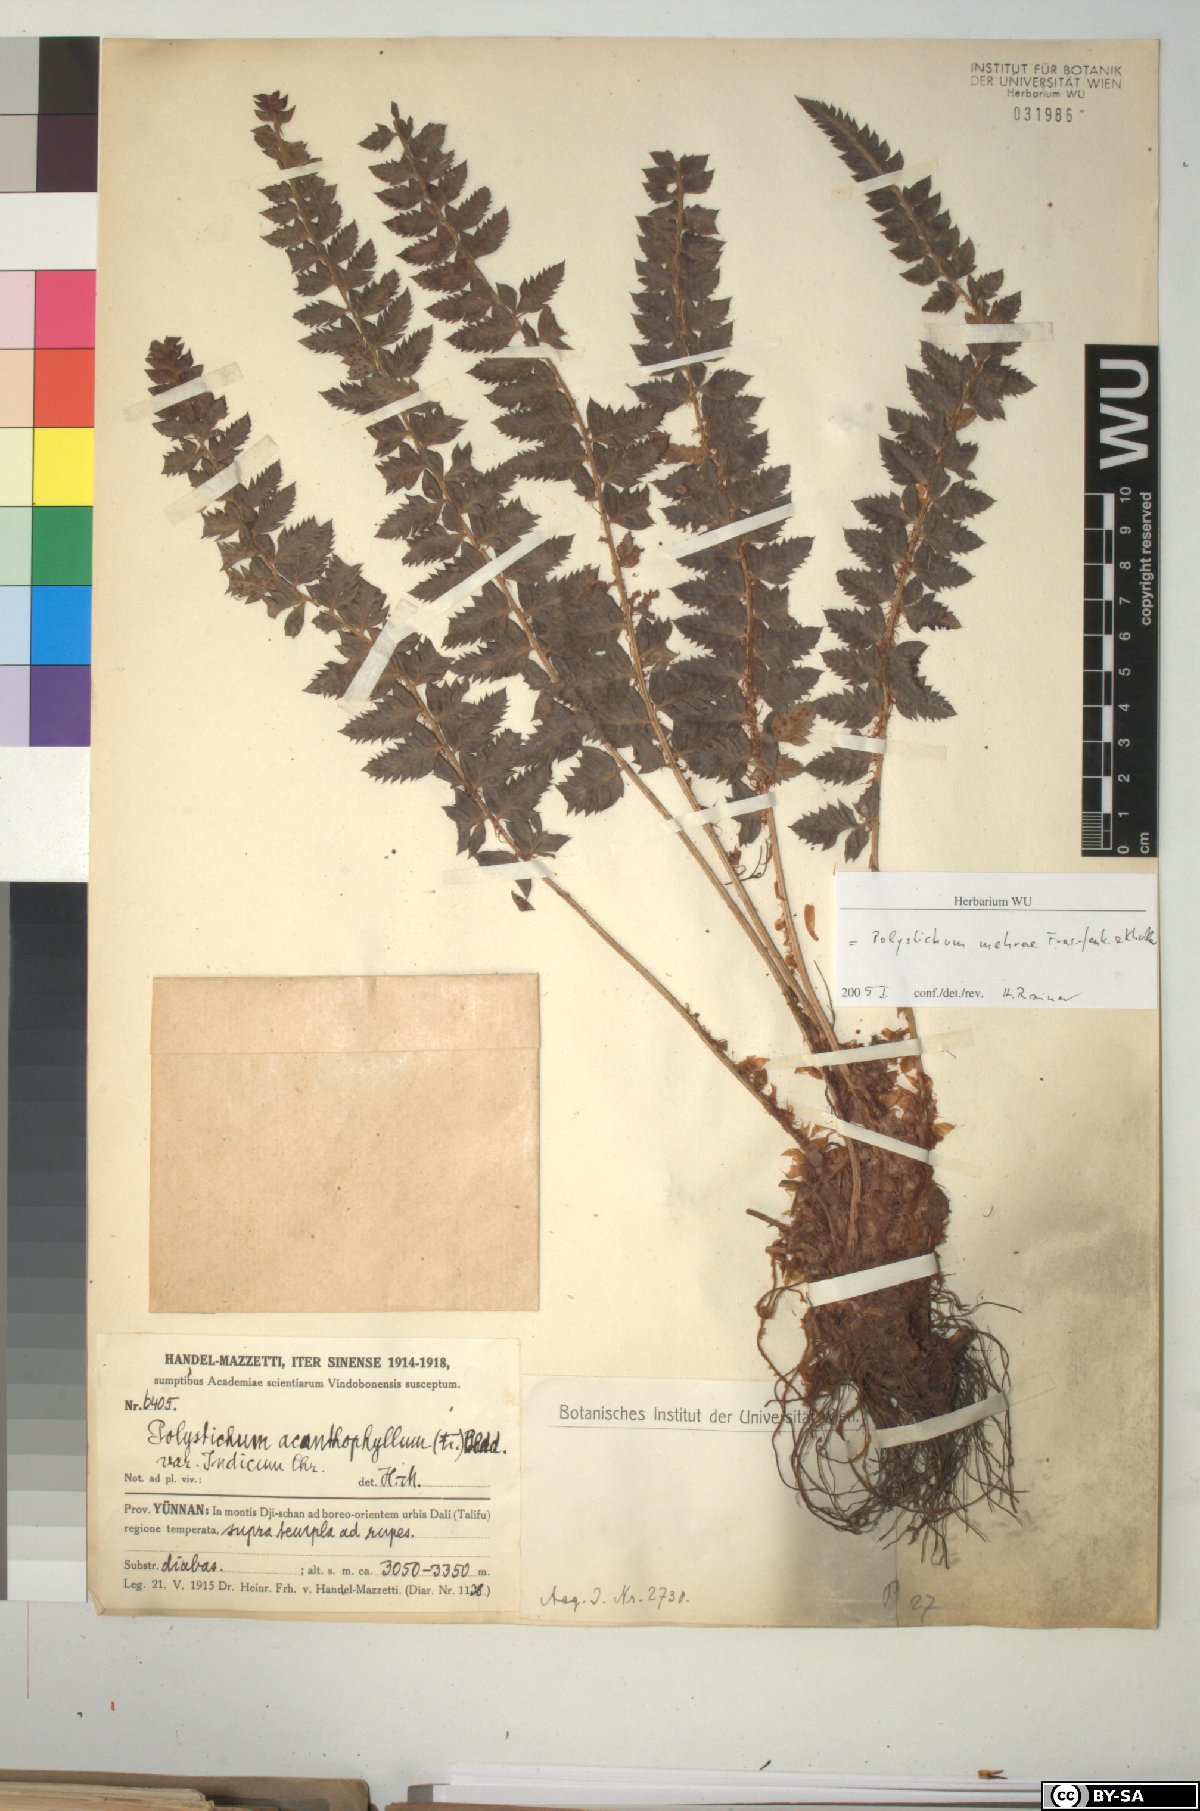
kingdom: Plantae
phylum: Tracheophyta
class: Polypodiopsida
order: Polypodiales
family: Dryopteridaceae
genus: Polystichum
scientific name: Polystichum mehrae
